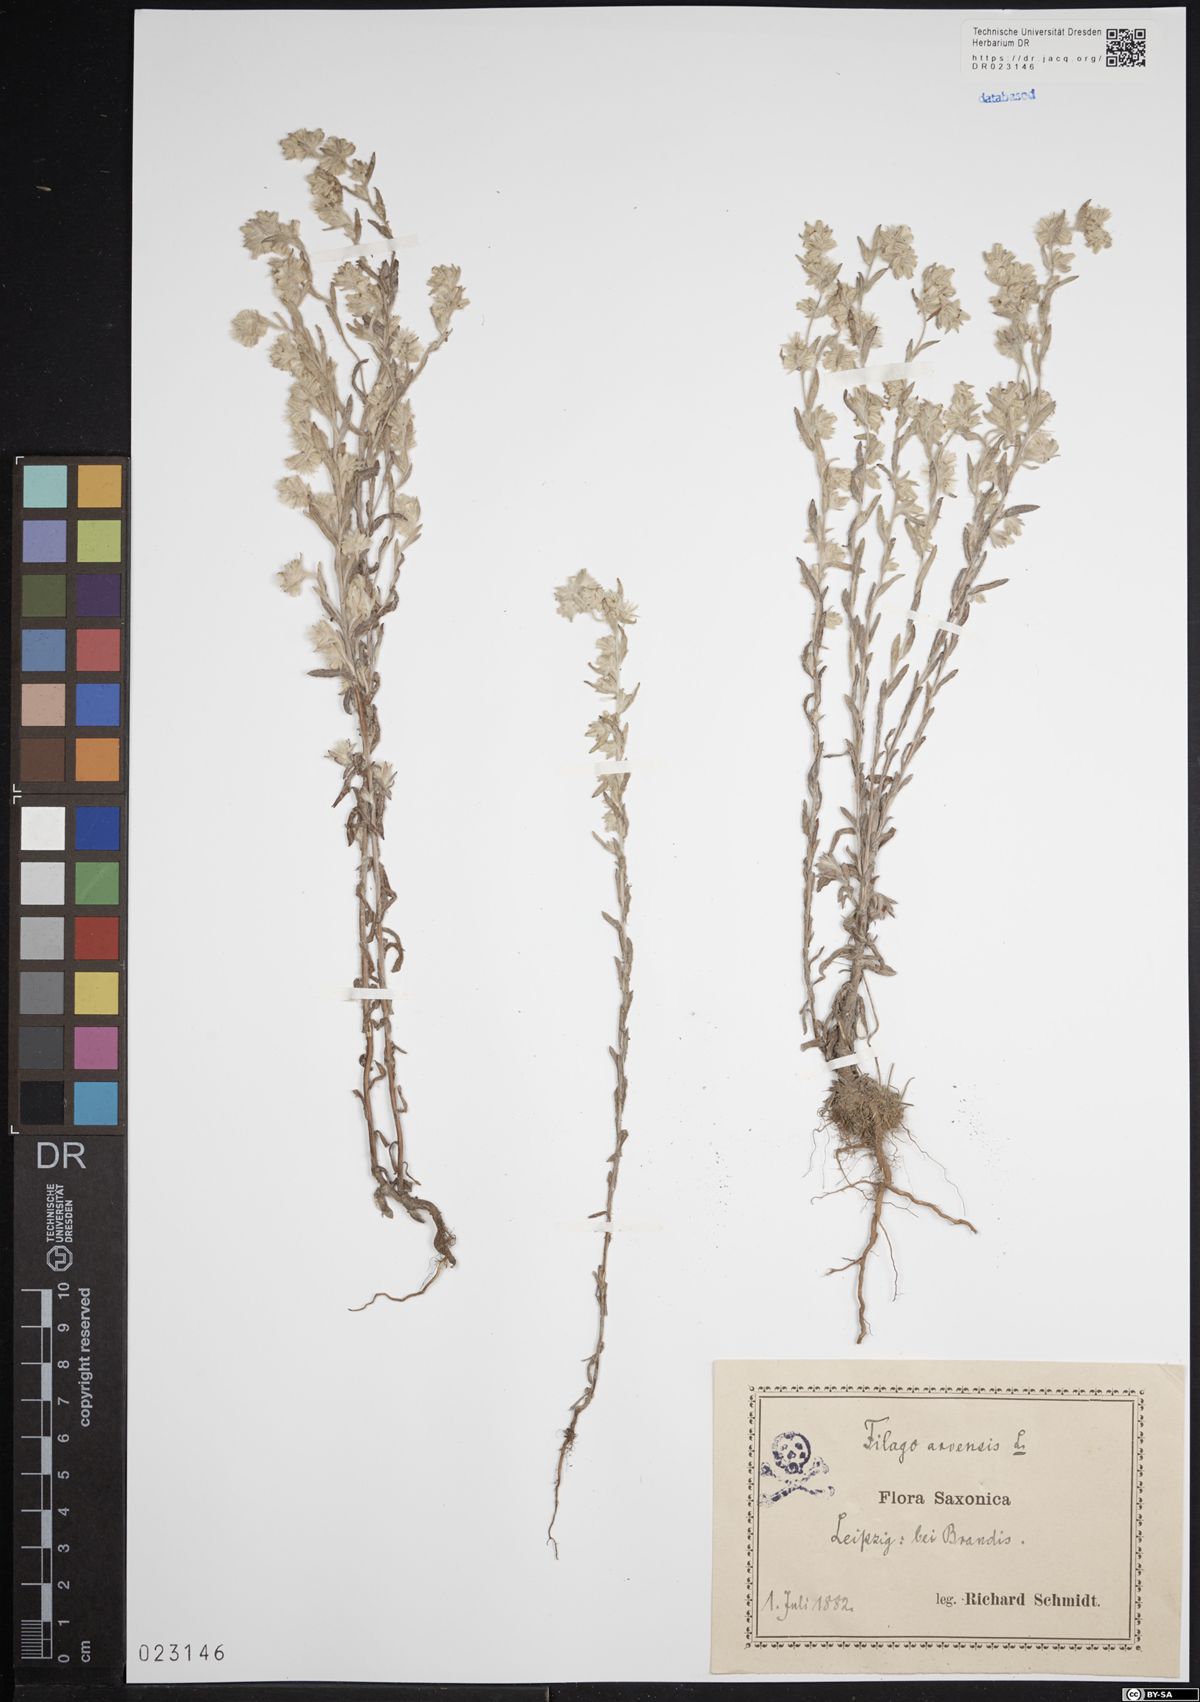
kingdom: Plantae
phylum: Tracheophyta
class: Magnoliopsida
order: Asterales
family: Asteraceae
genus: Filago
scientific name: Filago arvensis
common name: Field cudweed
